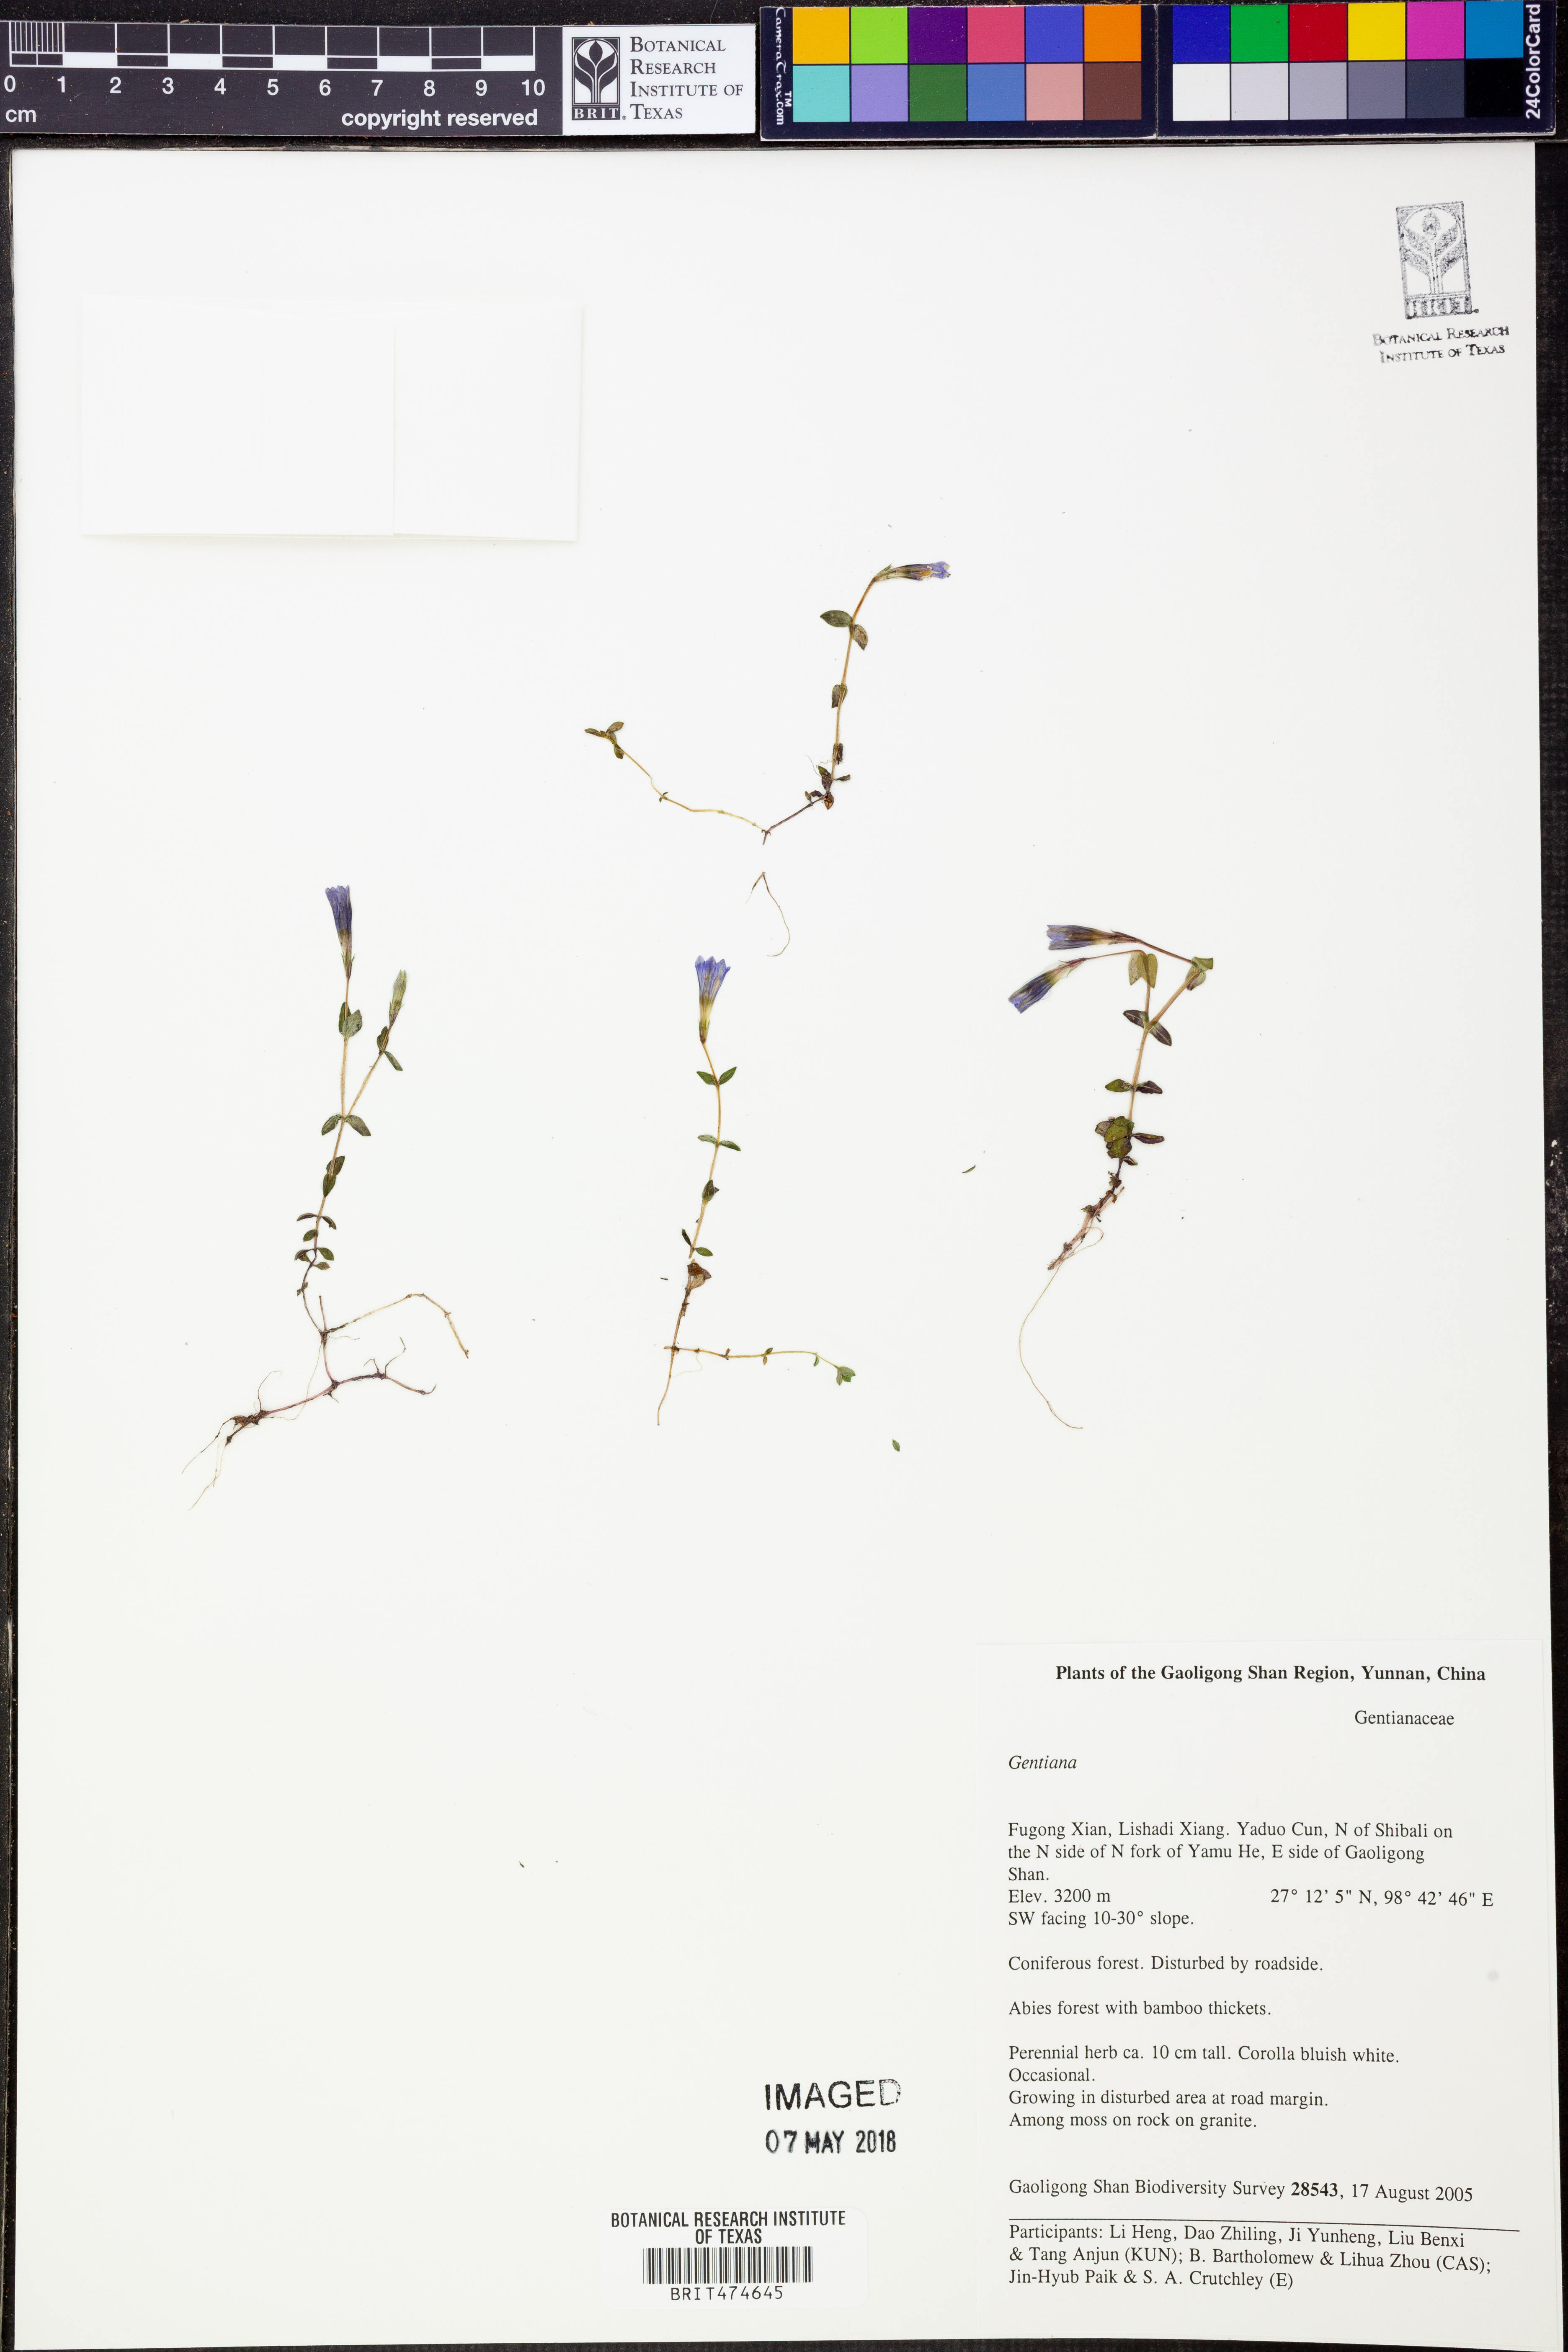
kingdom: Plantae
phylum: Tracheophyta
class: Magnoliopsida
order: Gentianales
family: Gentianaceae
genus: Gentiana
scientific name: Gentiana
